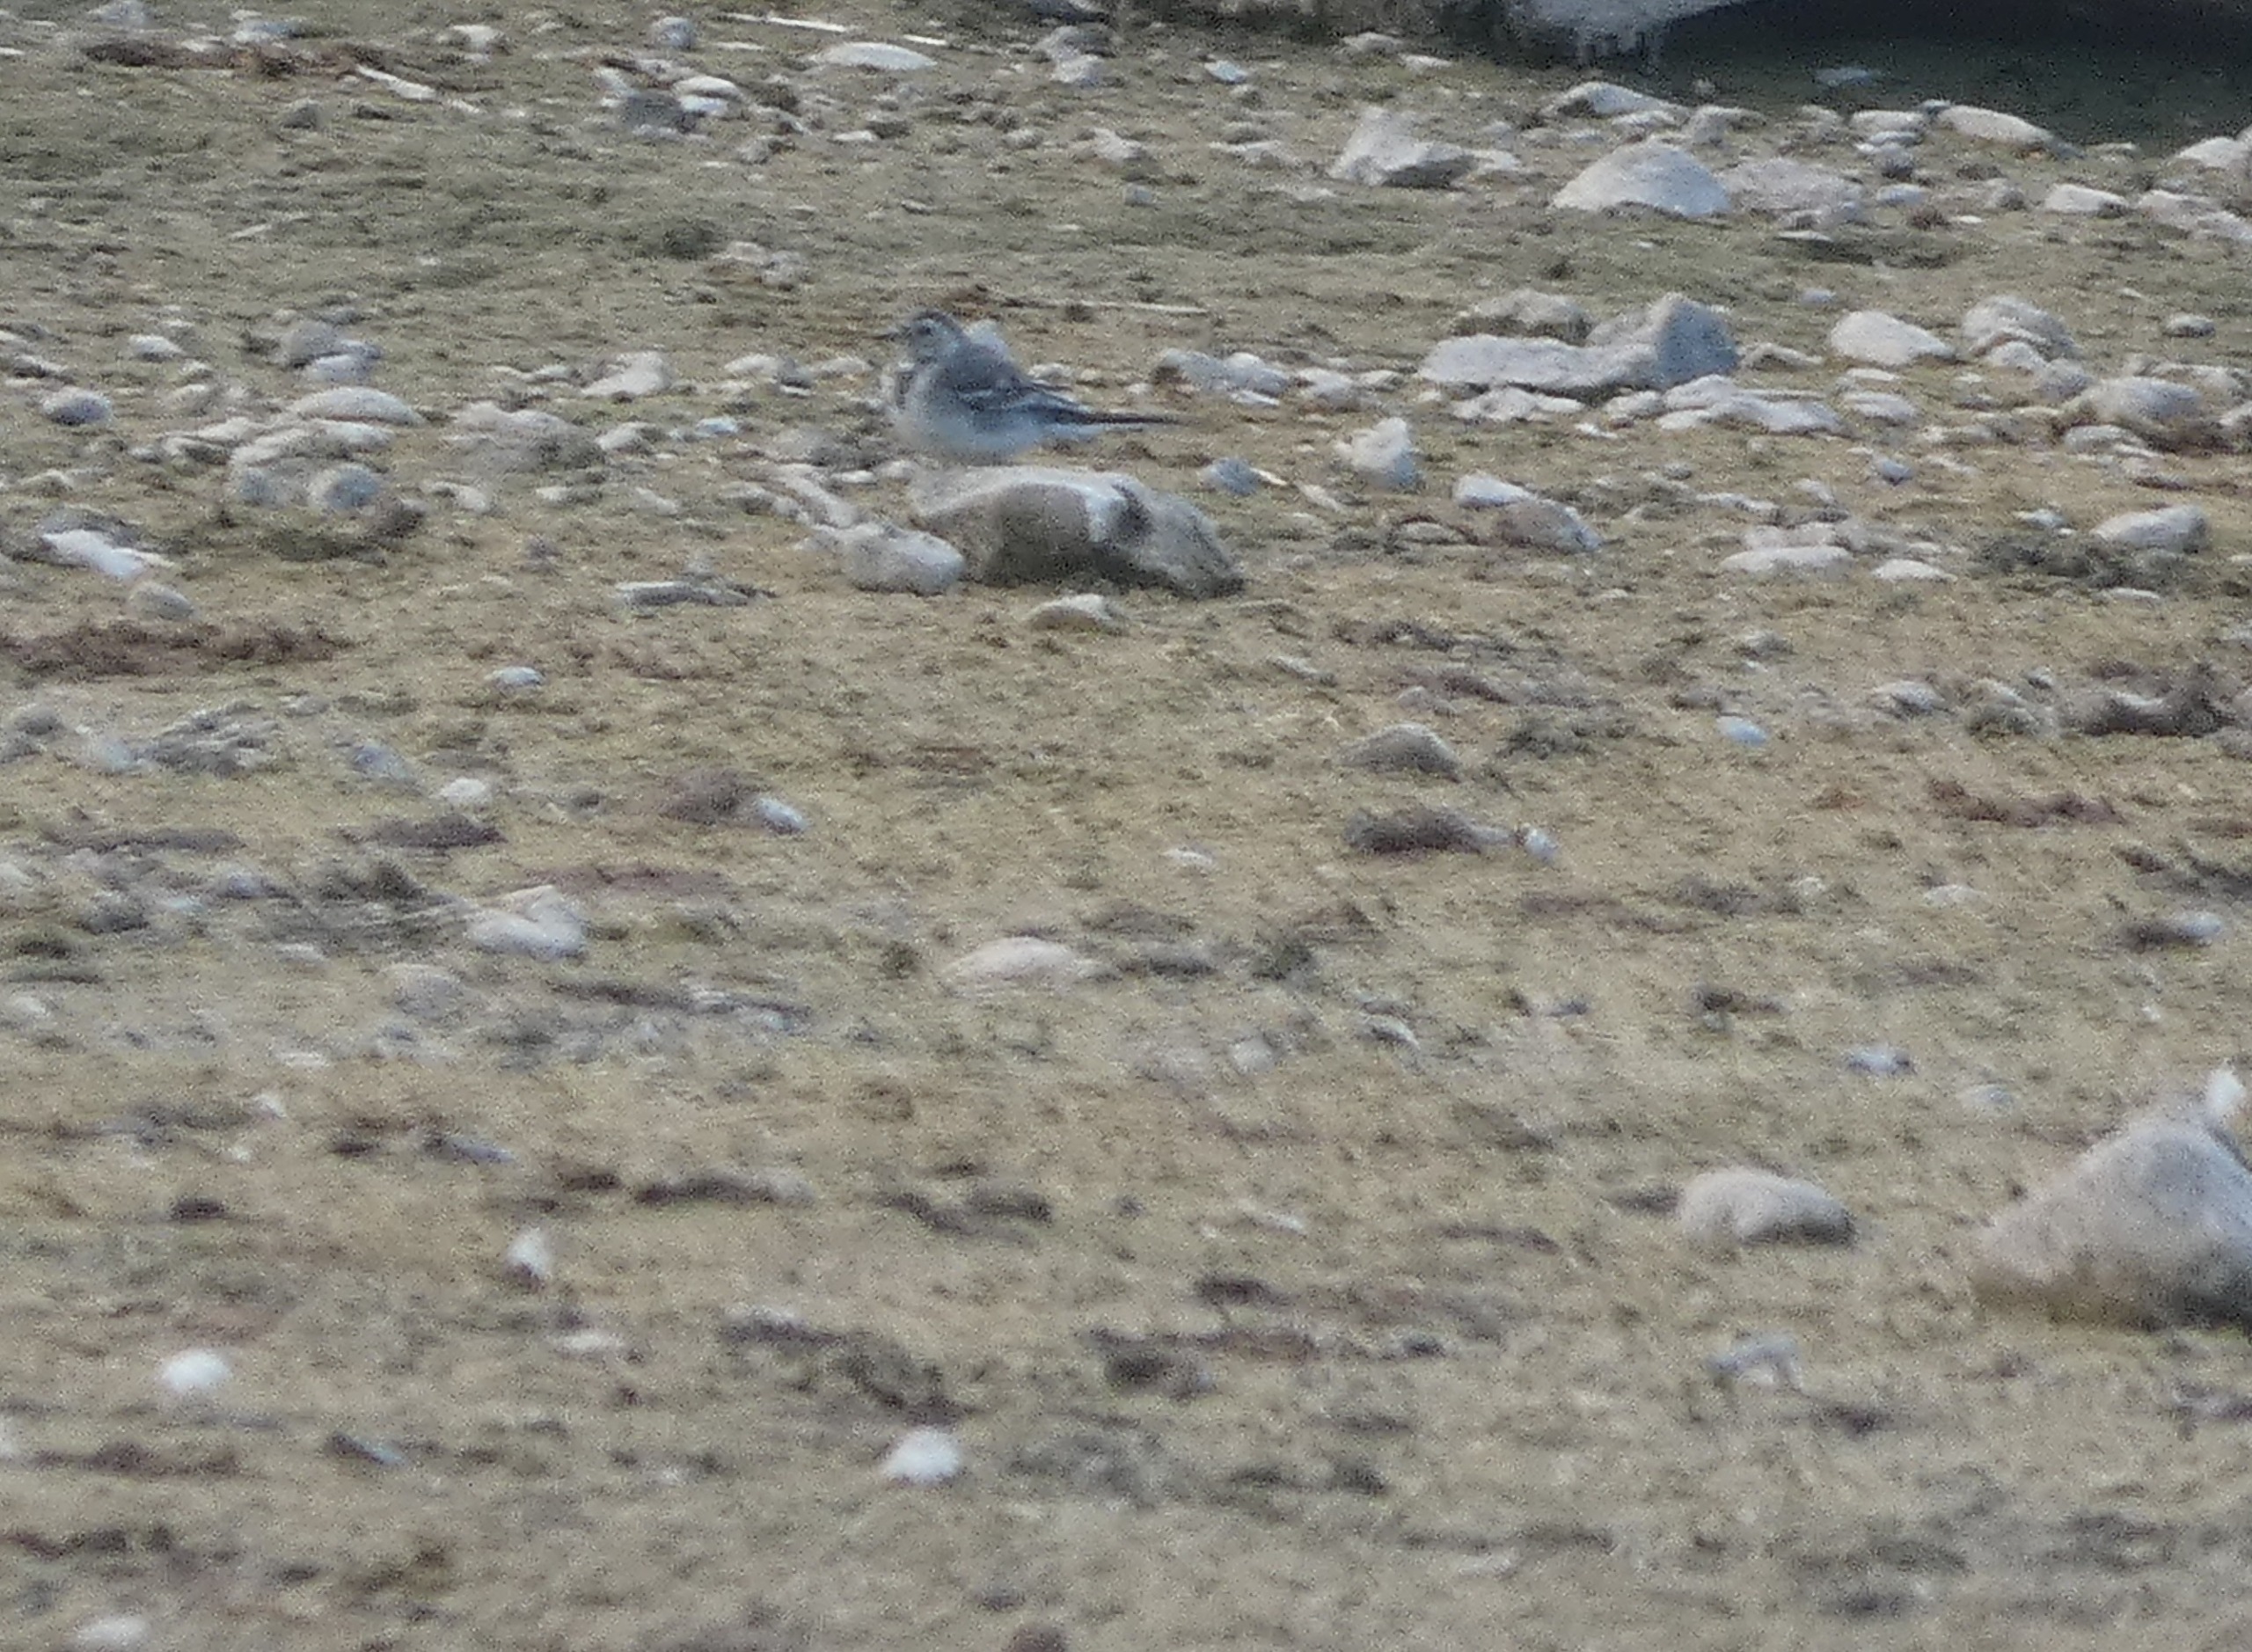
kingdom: Animalia
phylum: Chordata
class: Aves
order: Passeriformes
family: Motacillidae
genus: Motacilla
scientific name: Motacilla alba
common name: Hvid vipstjert
